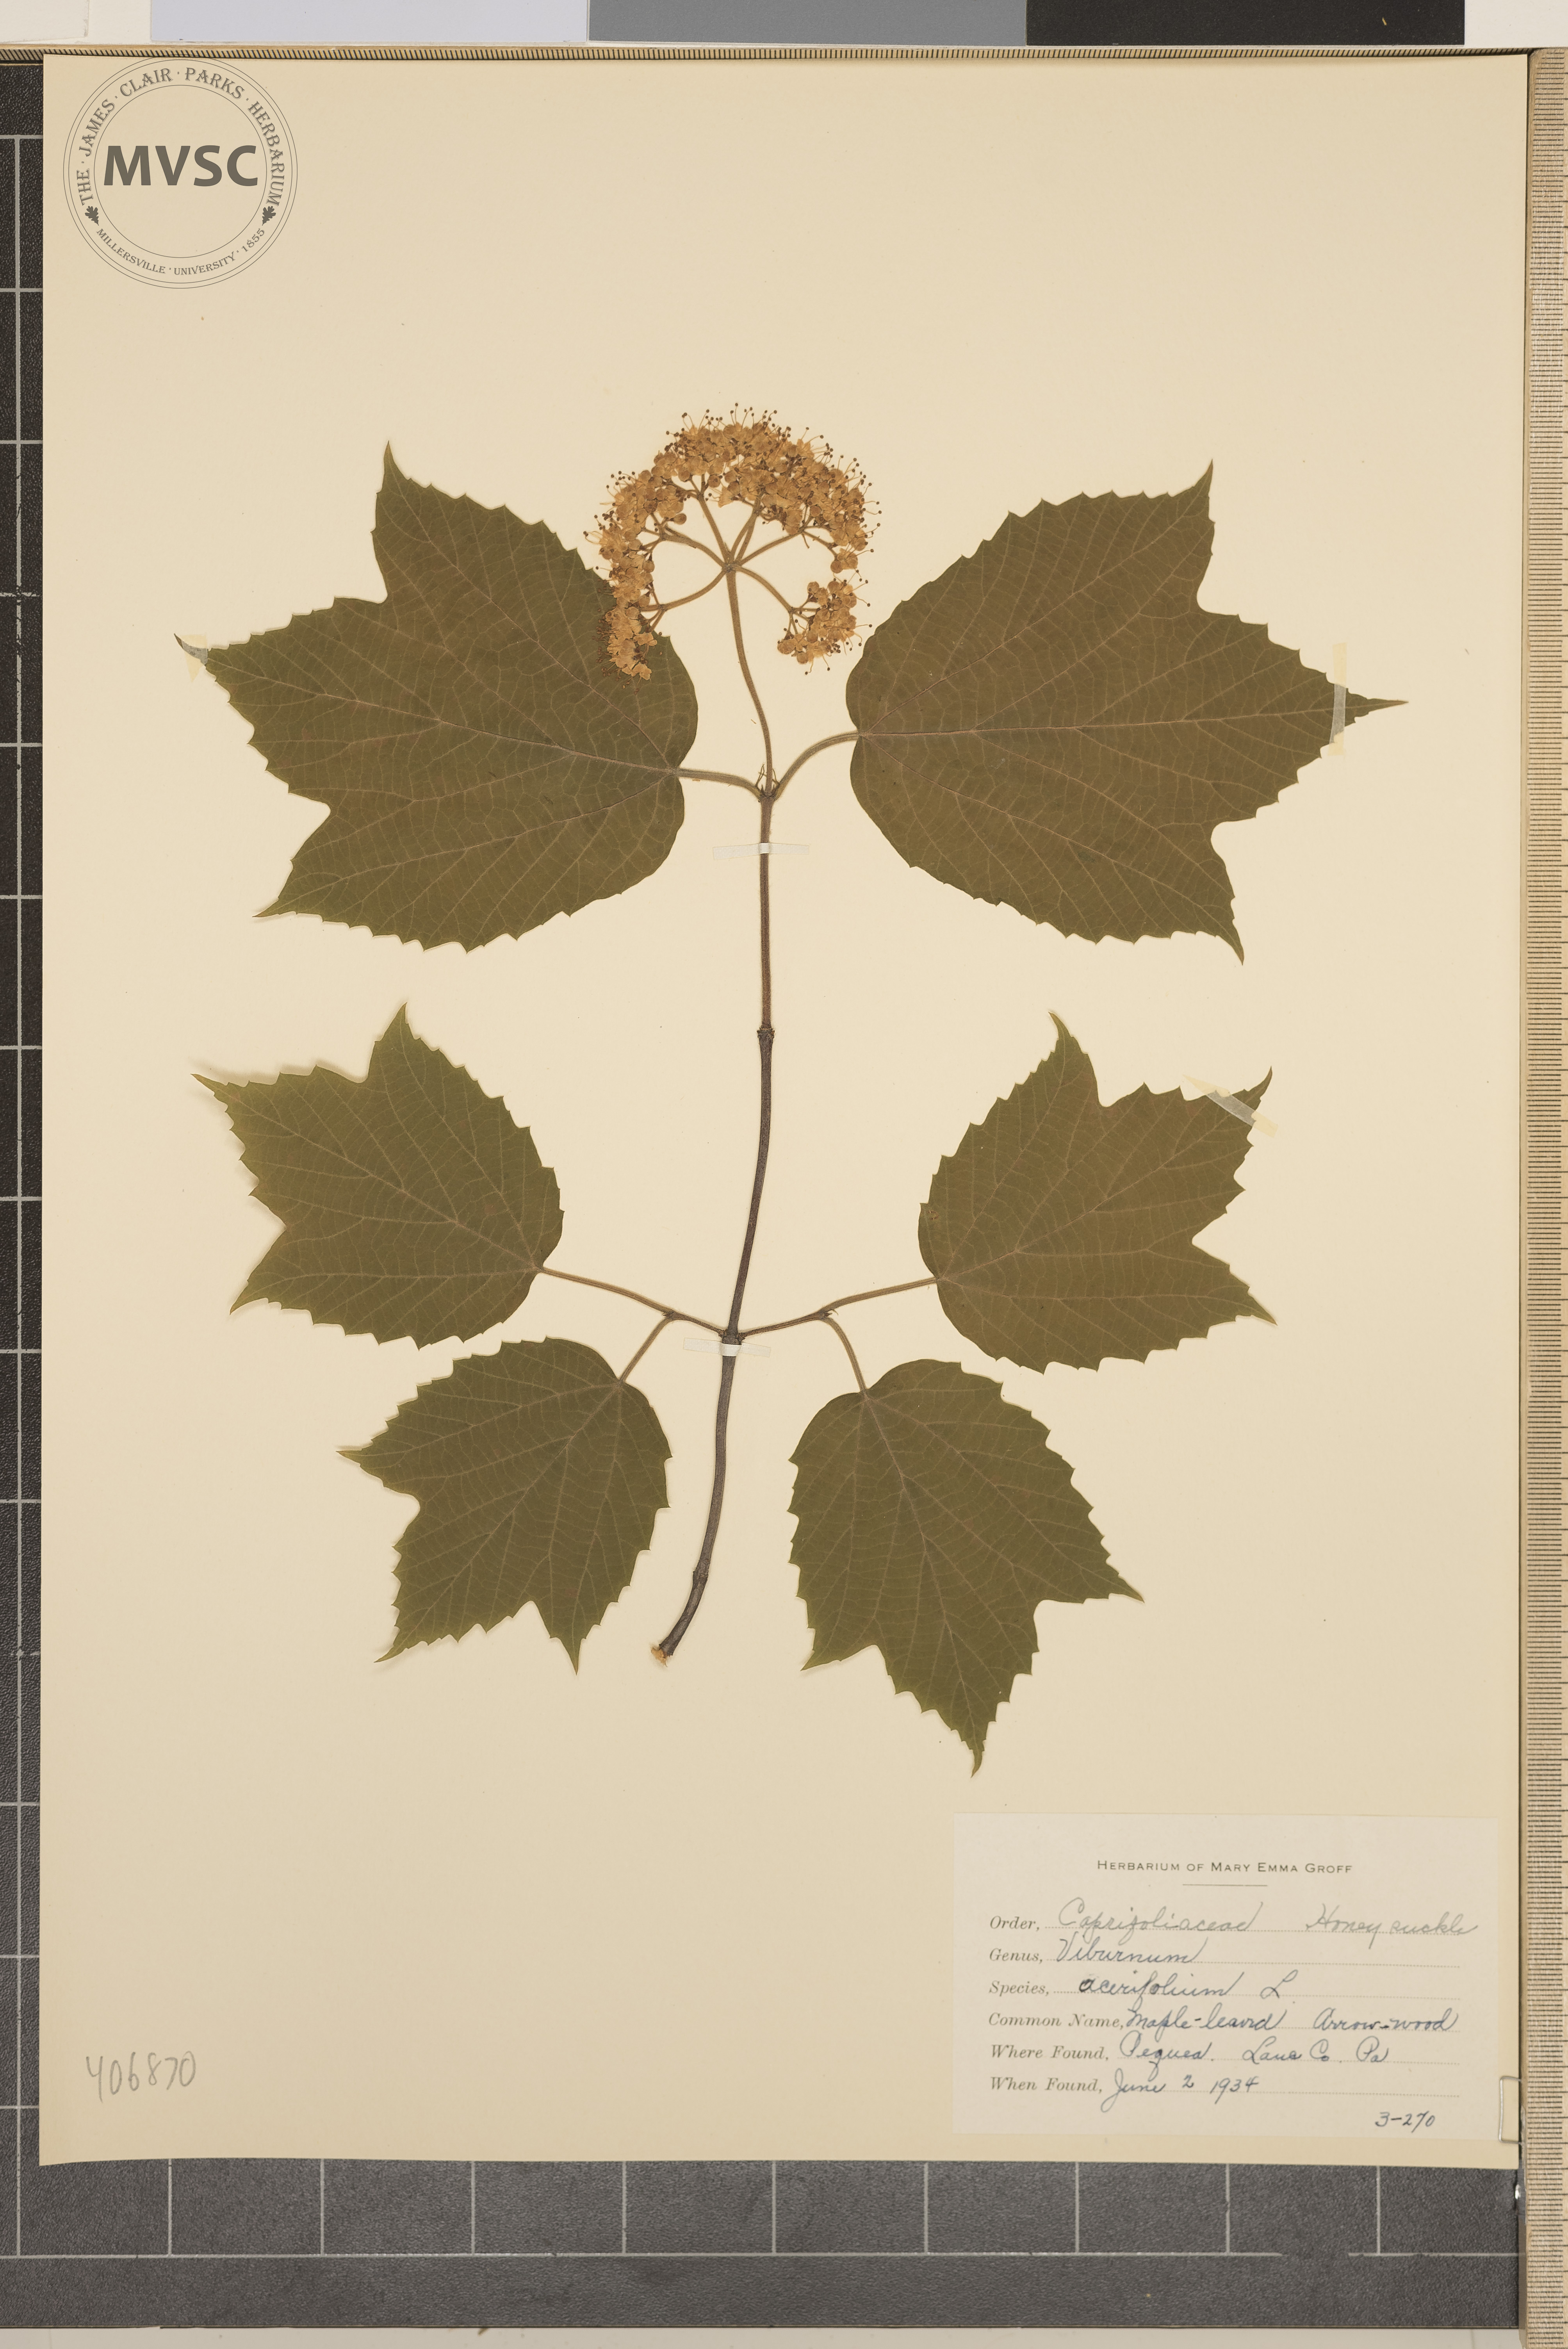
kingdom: Plantae
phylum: Tracheophyta
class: Magnoliopsida
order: Dipsacales
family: Viburnaceae
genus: Viburnum
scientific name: Viburnum acerifolium
